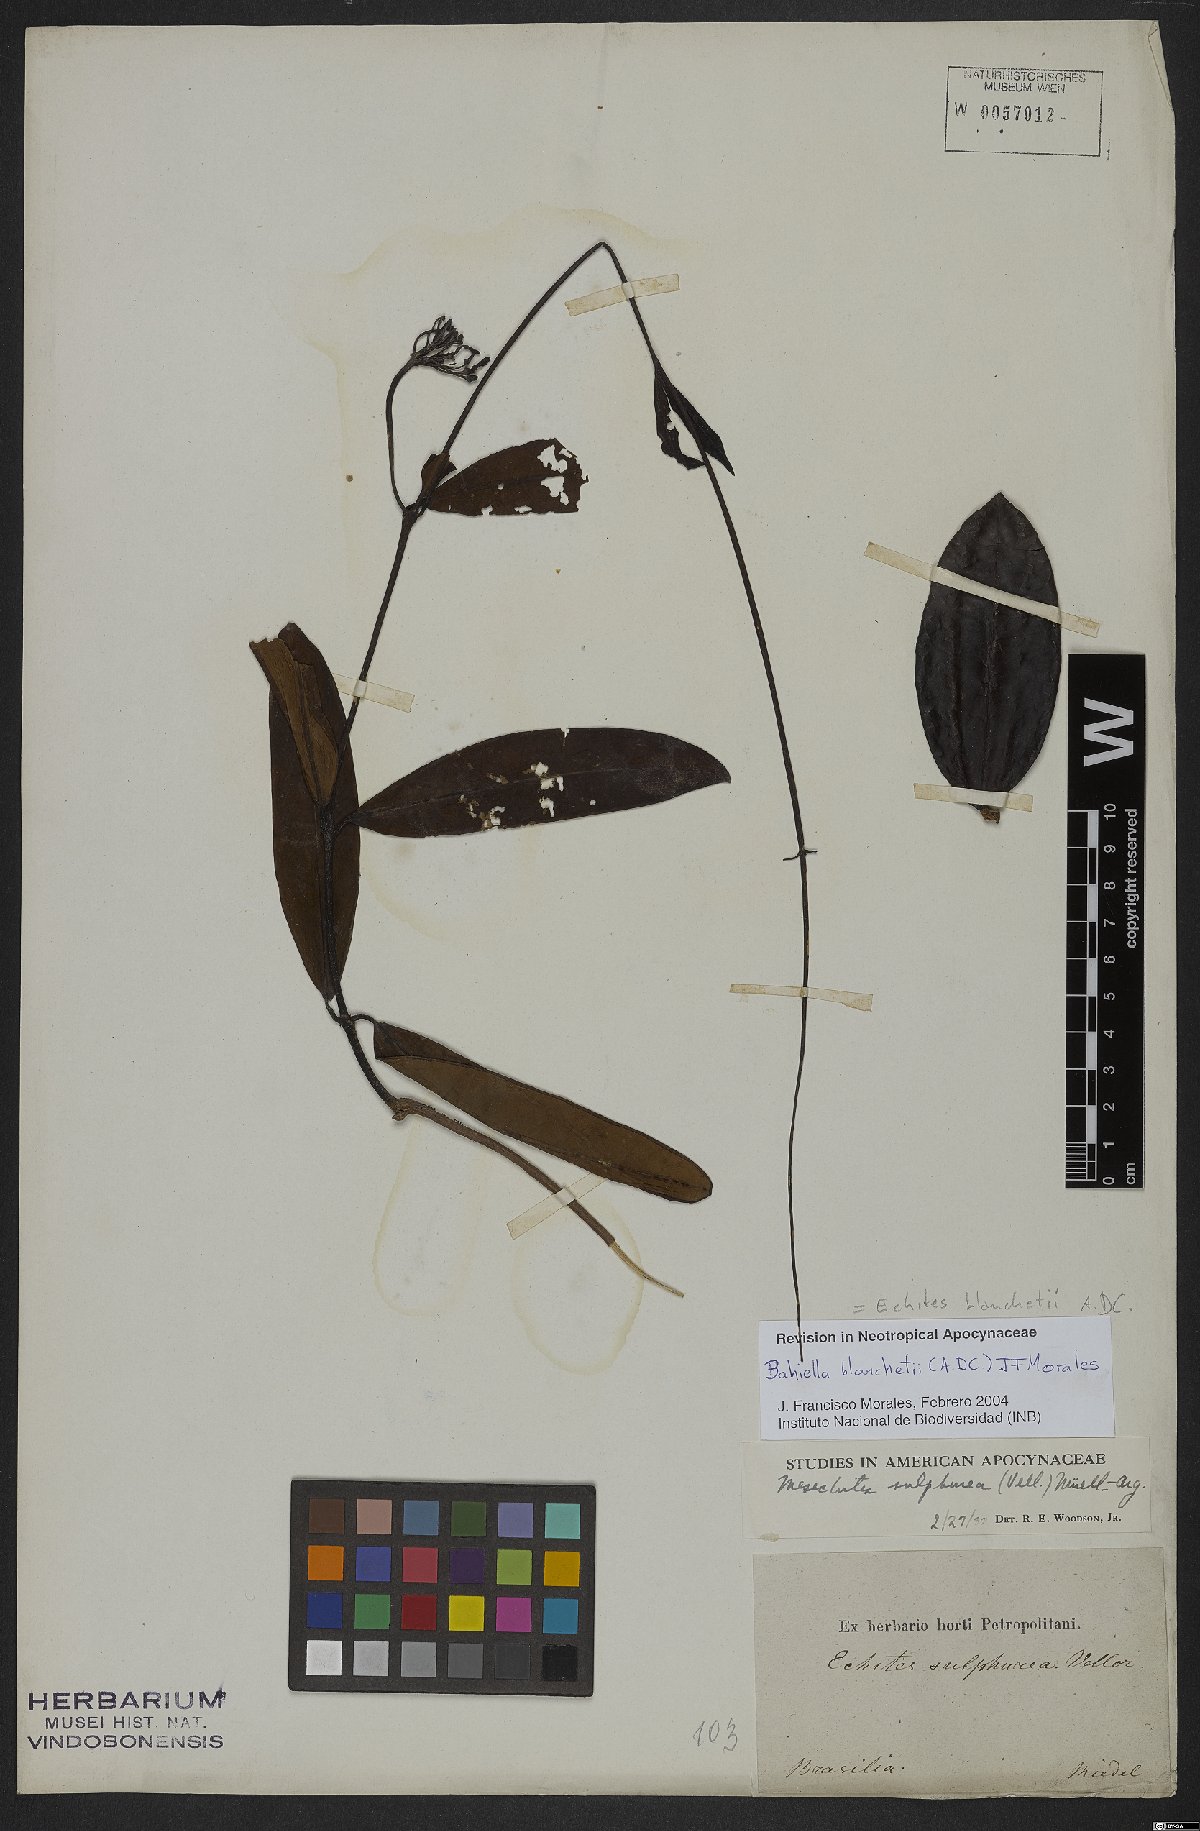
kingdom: Plantae
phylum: Tracheophyta
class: Magnoliopsida
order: Gentianales
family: Apocynaceae
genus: Bahiella
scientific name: Bahiella blanchetii
